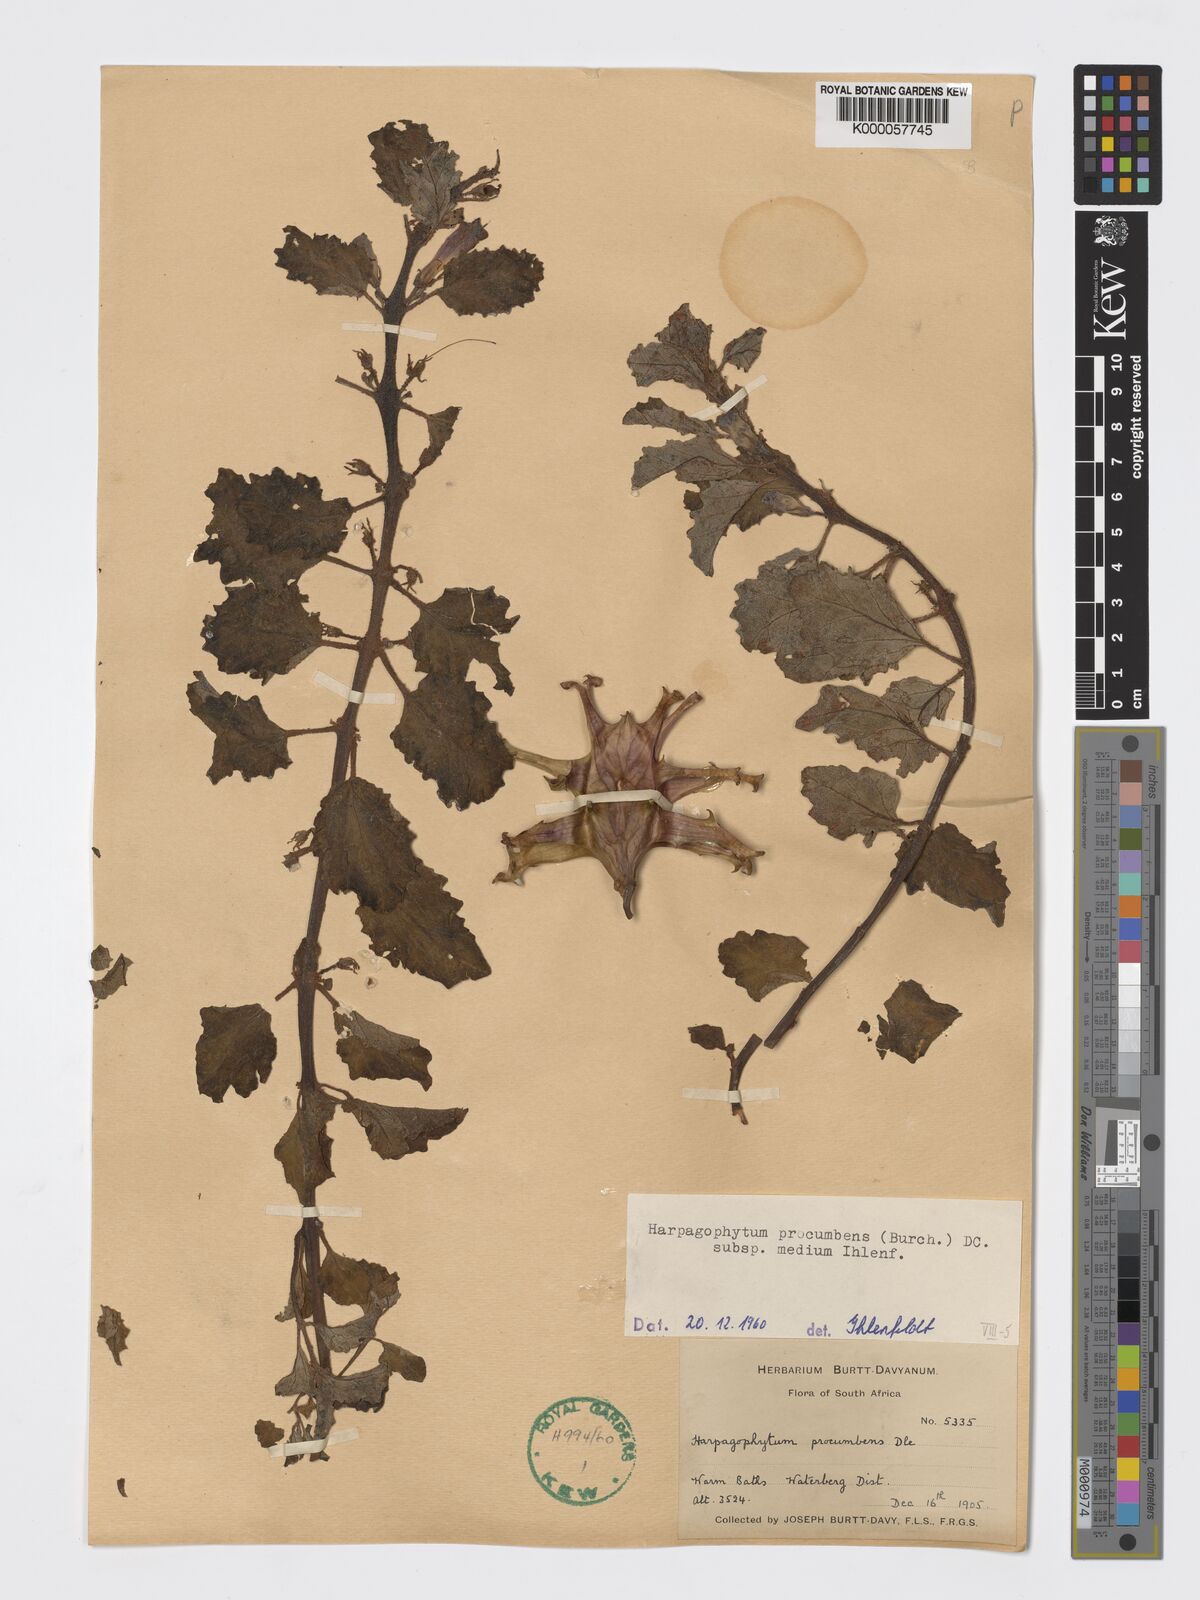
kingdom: Plantae
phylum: Tracheophyta
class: Magnoliopsida
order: Lamiales
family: Pedaliaceae
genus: Harpagophytum
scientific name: Harpagophytum procumbens
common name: Grappleplant
